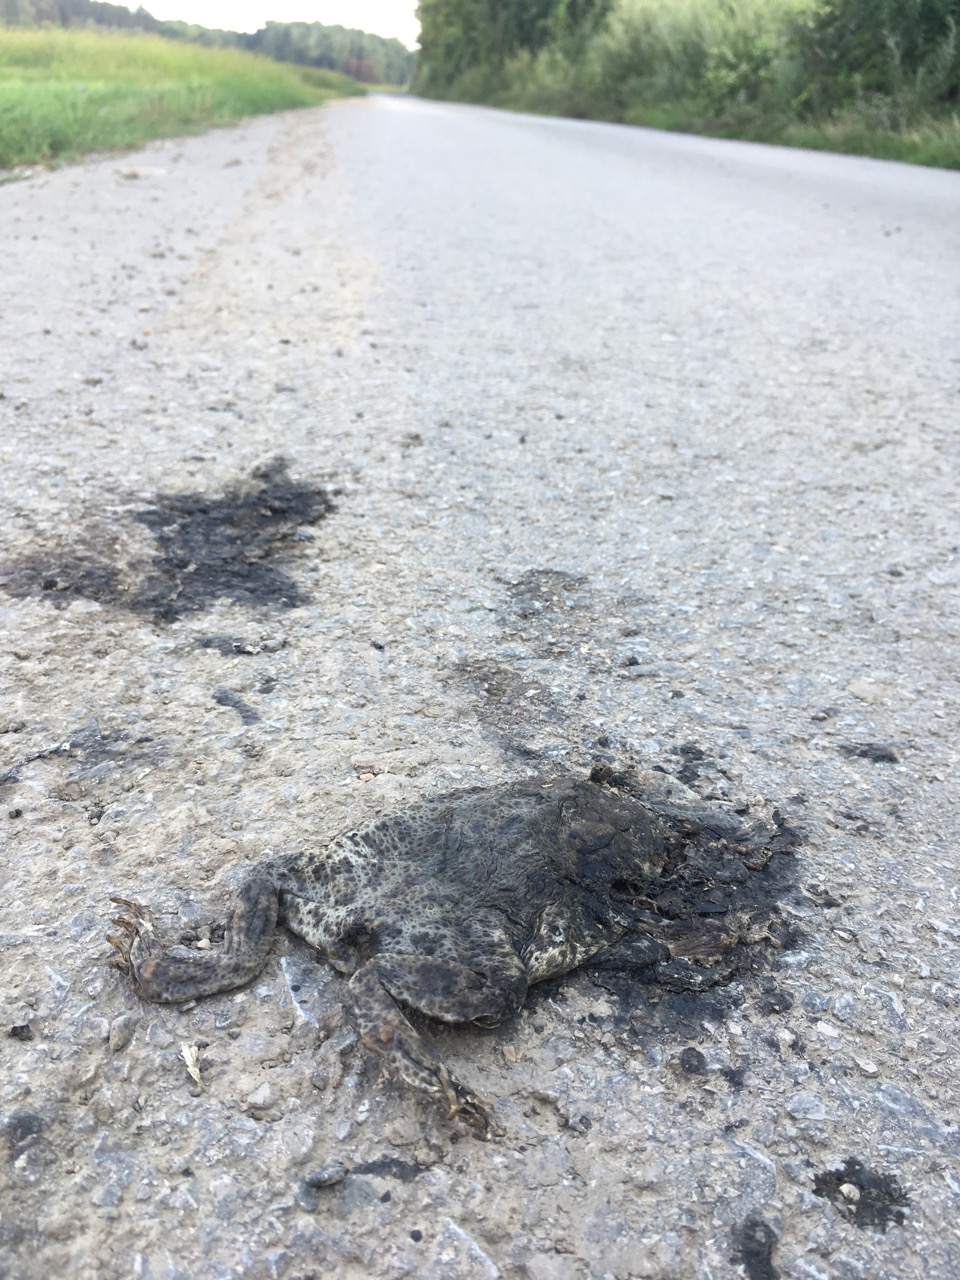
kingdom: Animalia
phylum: Chordata
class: Amphibia
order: Anura
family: Bufonidae
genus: Bufo
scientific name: Bufo bufo
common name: Common toad
